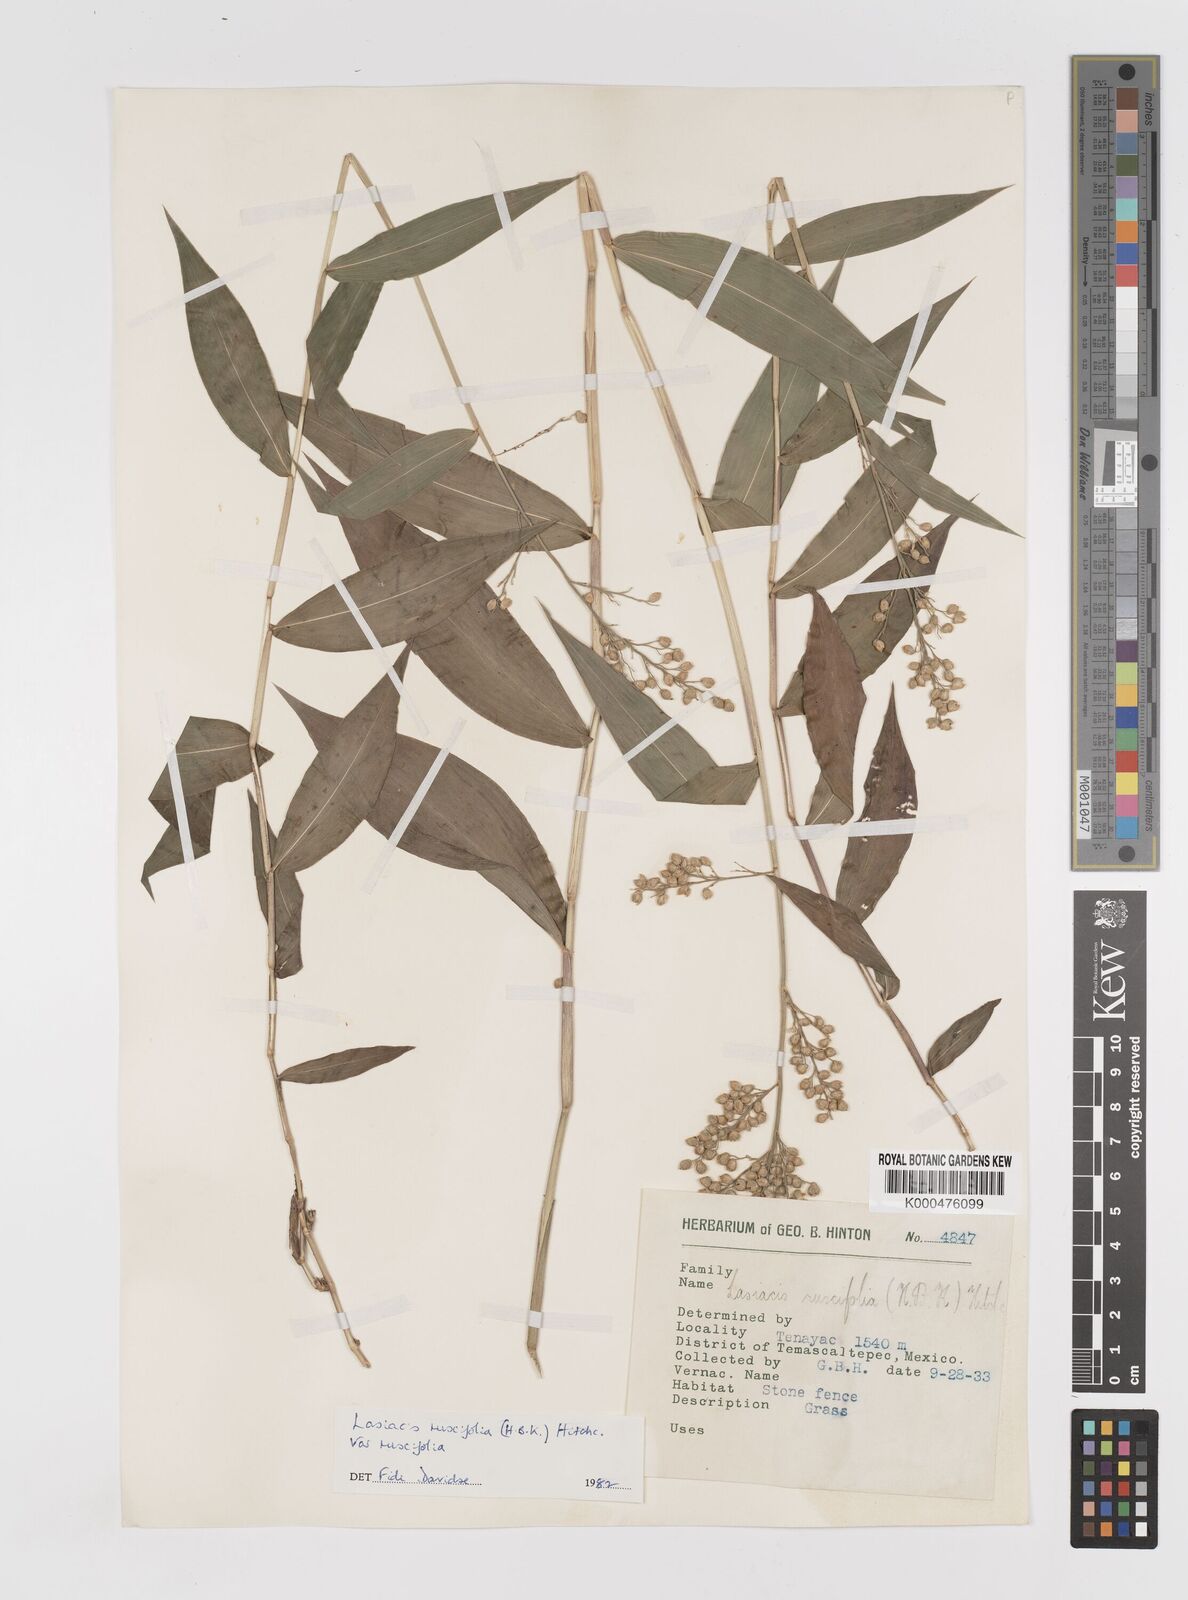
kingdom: Plantae
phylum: Tracheophyta
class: Liliopsida
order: Poales
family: Poaceae
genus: Lasiacis
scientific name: Lasiacis ruscifolia
